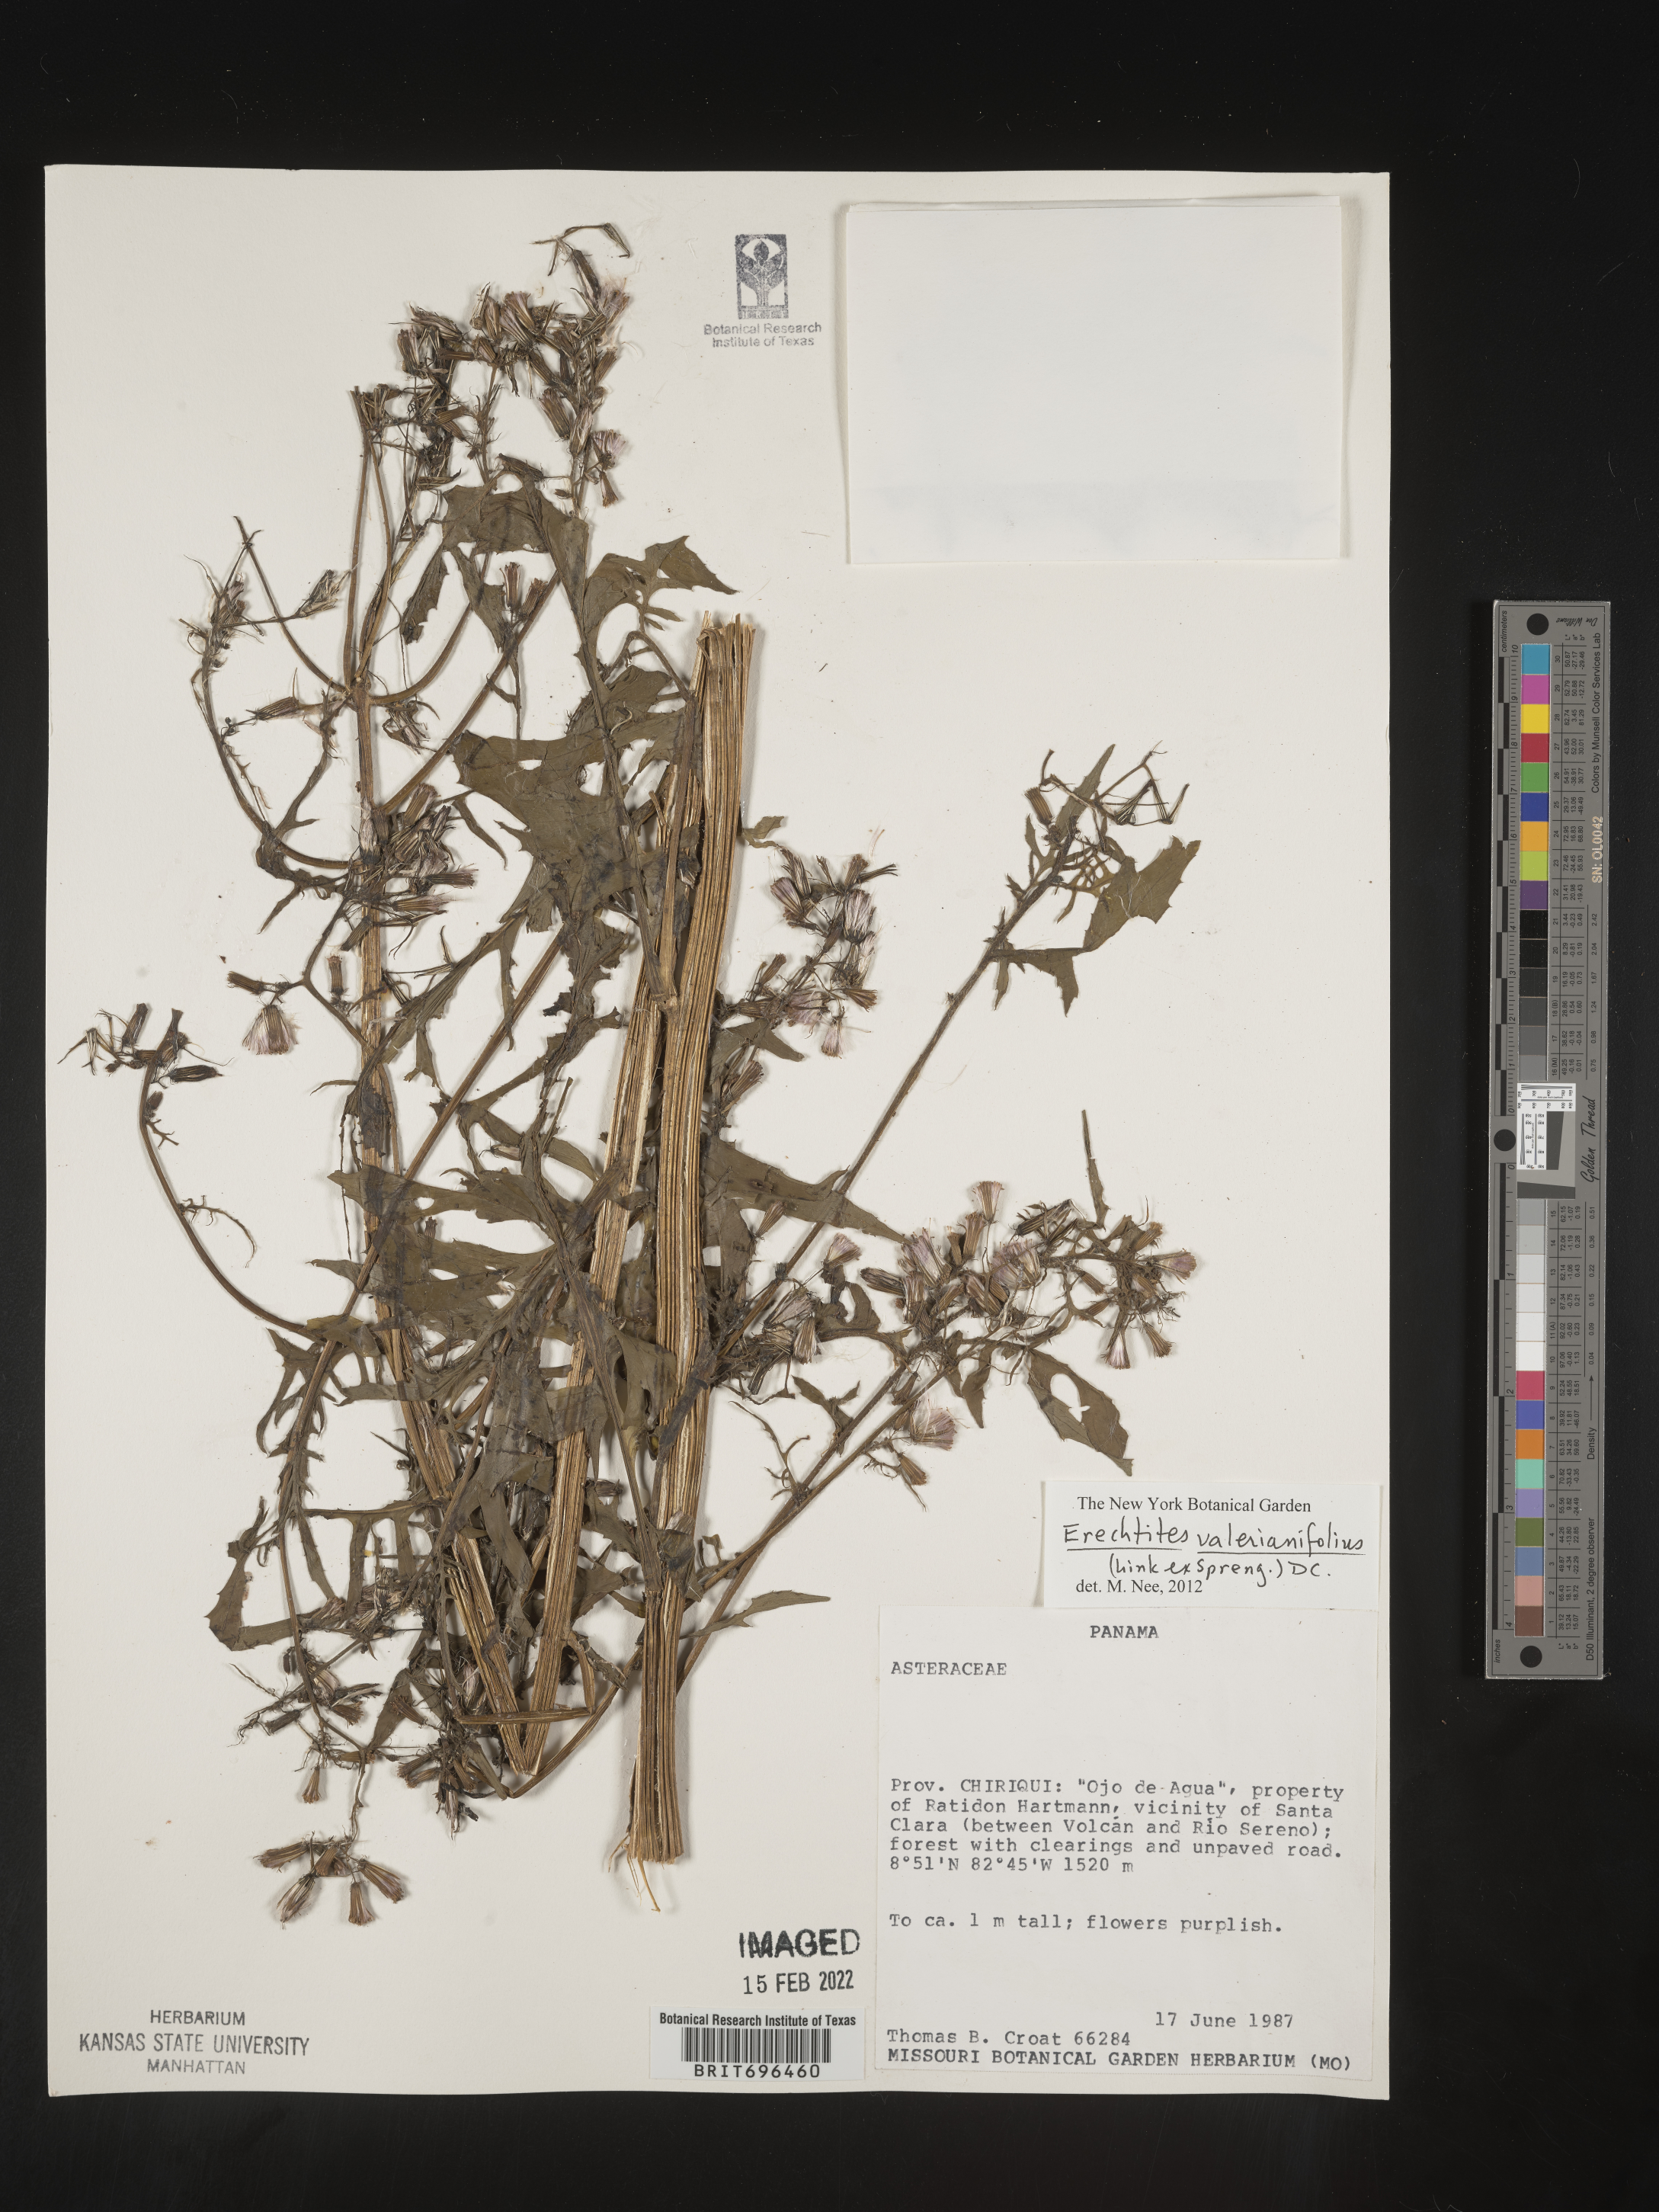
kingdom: Plantae
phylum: Tracheophyta
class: Magnoliopsida
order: Asterales
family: Asteraceae
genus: Erechtites
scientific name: Erechtites
